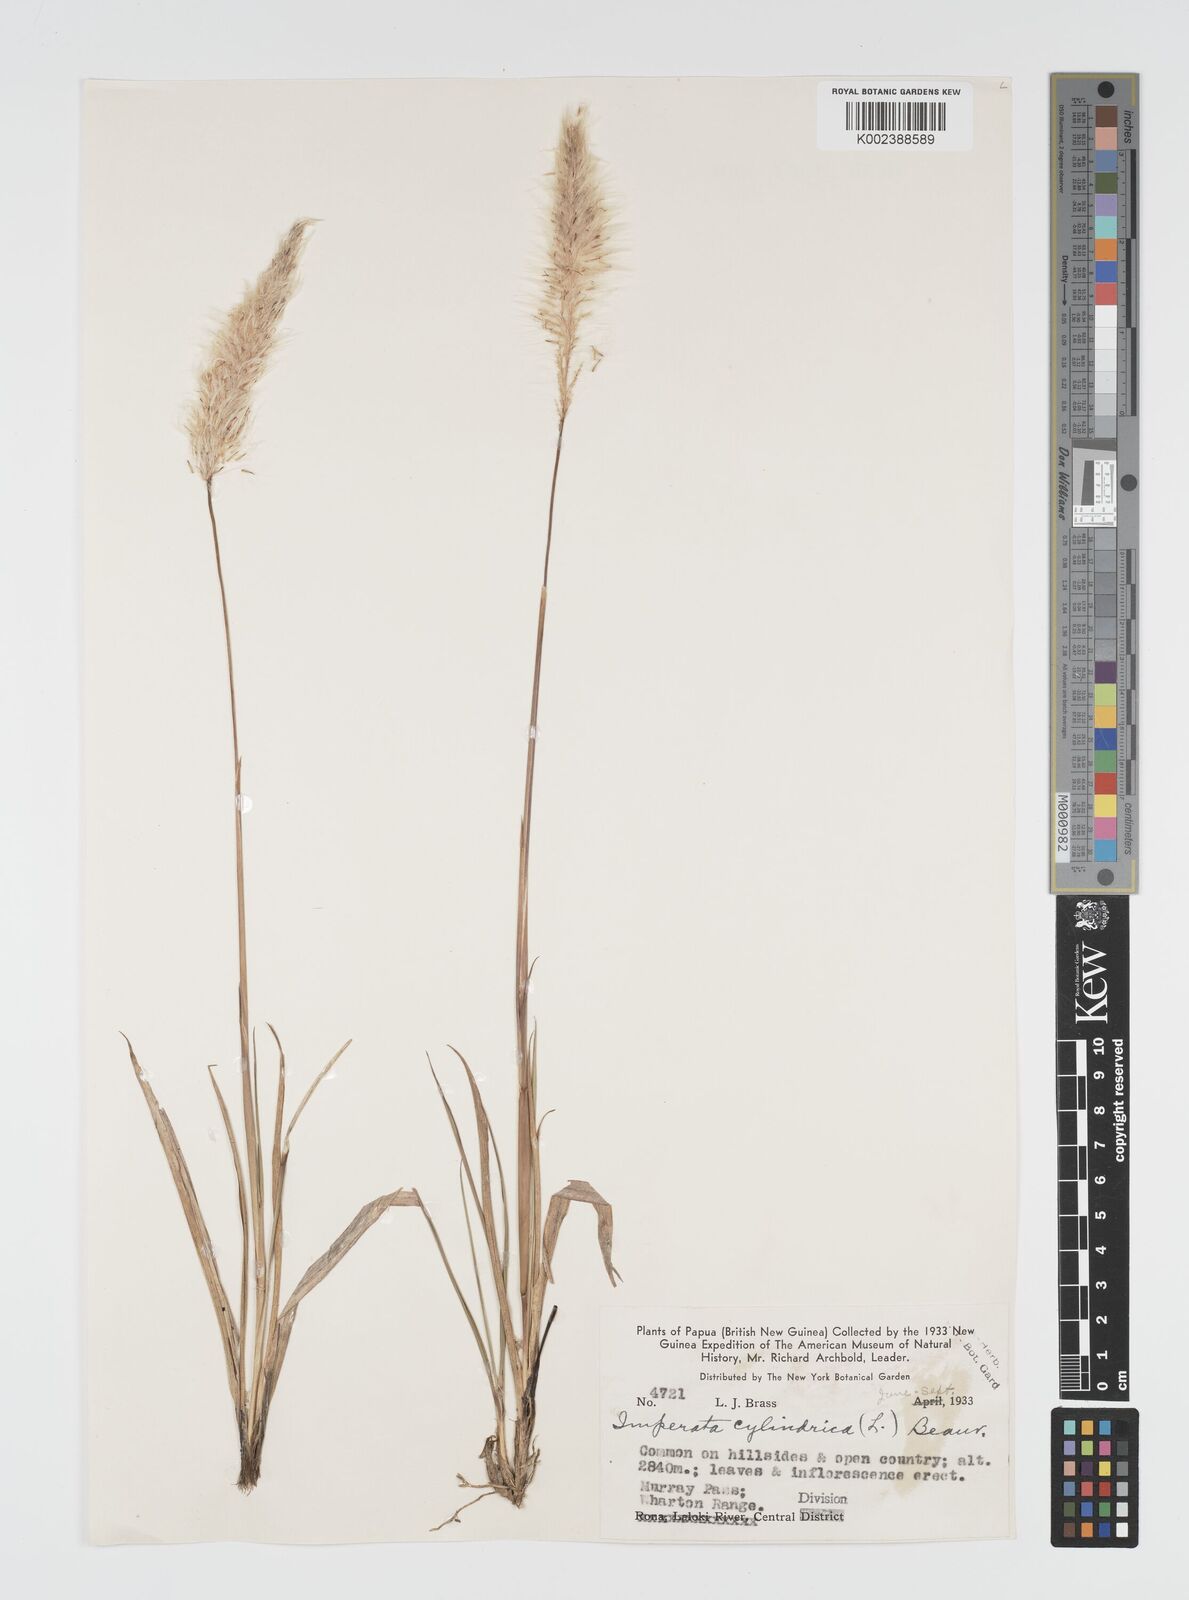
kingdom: Plantae
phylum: Tracheophyta
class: Liliopsida
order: Poales
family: Poaceae
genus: Imperata
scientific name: Imperata cylindrica
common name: Cogongrass
